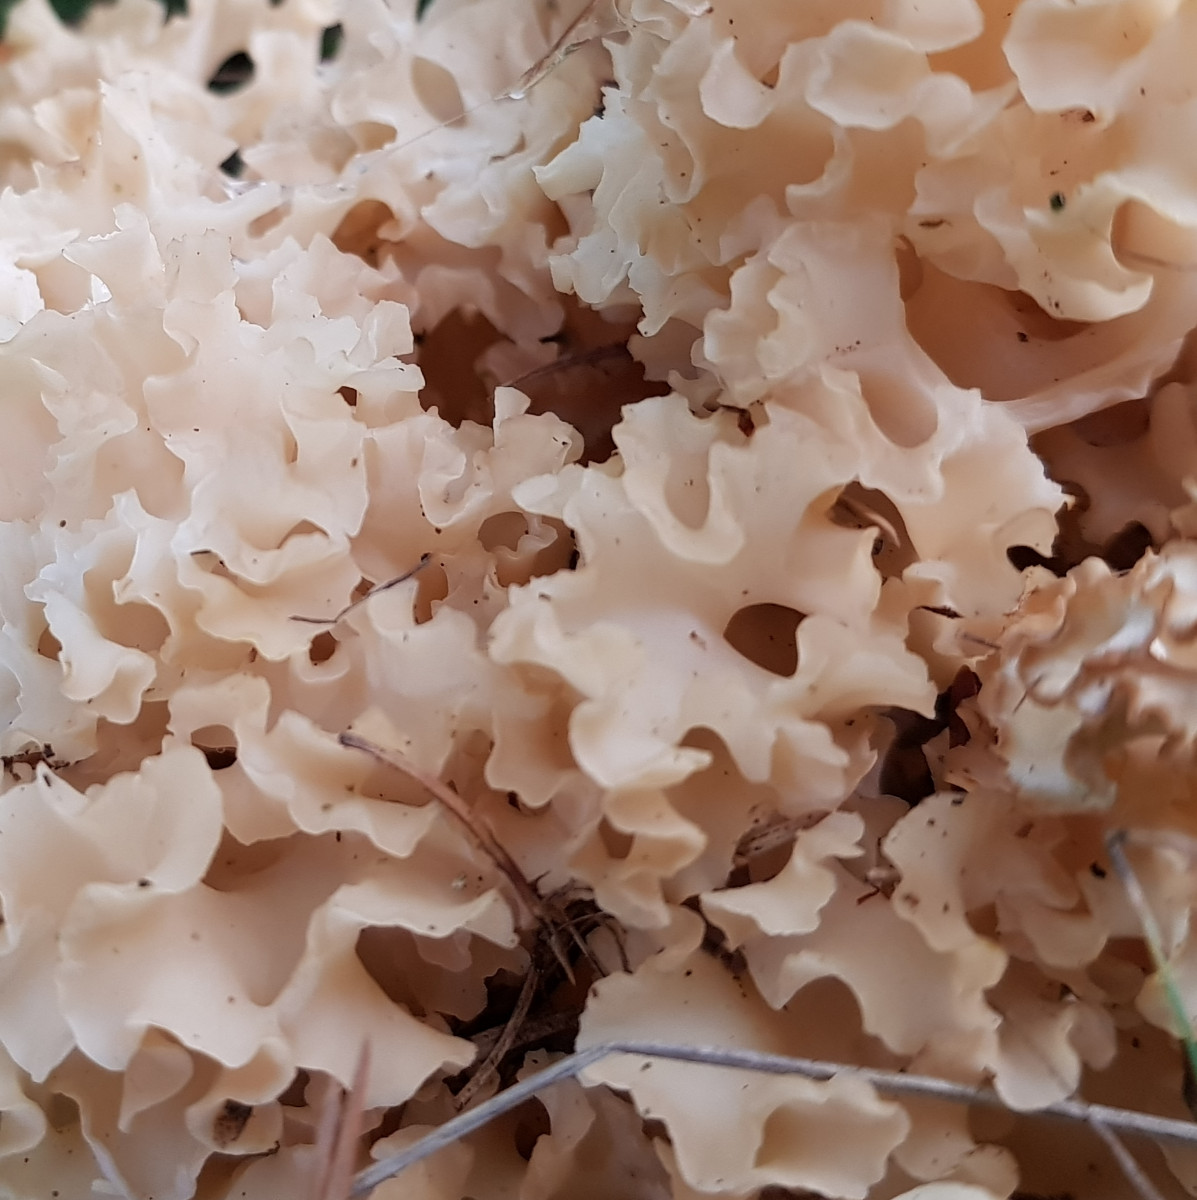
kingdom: Fungi
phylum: Basidiomycota
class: Agaricomycetes
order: Polyporales
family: Sparassidaceae
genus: Sparassis
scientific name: Sparassis crispa
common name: kruset blomkålssvamp
